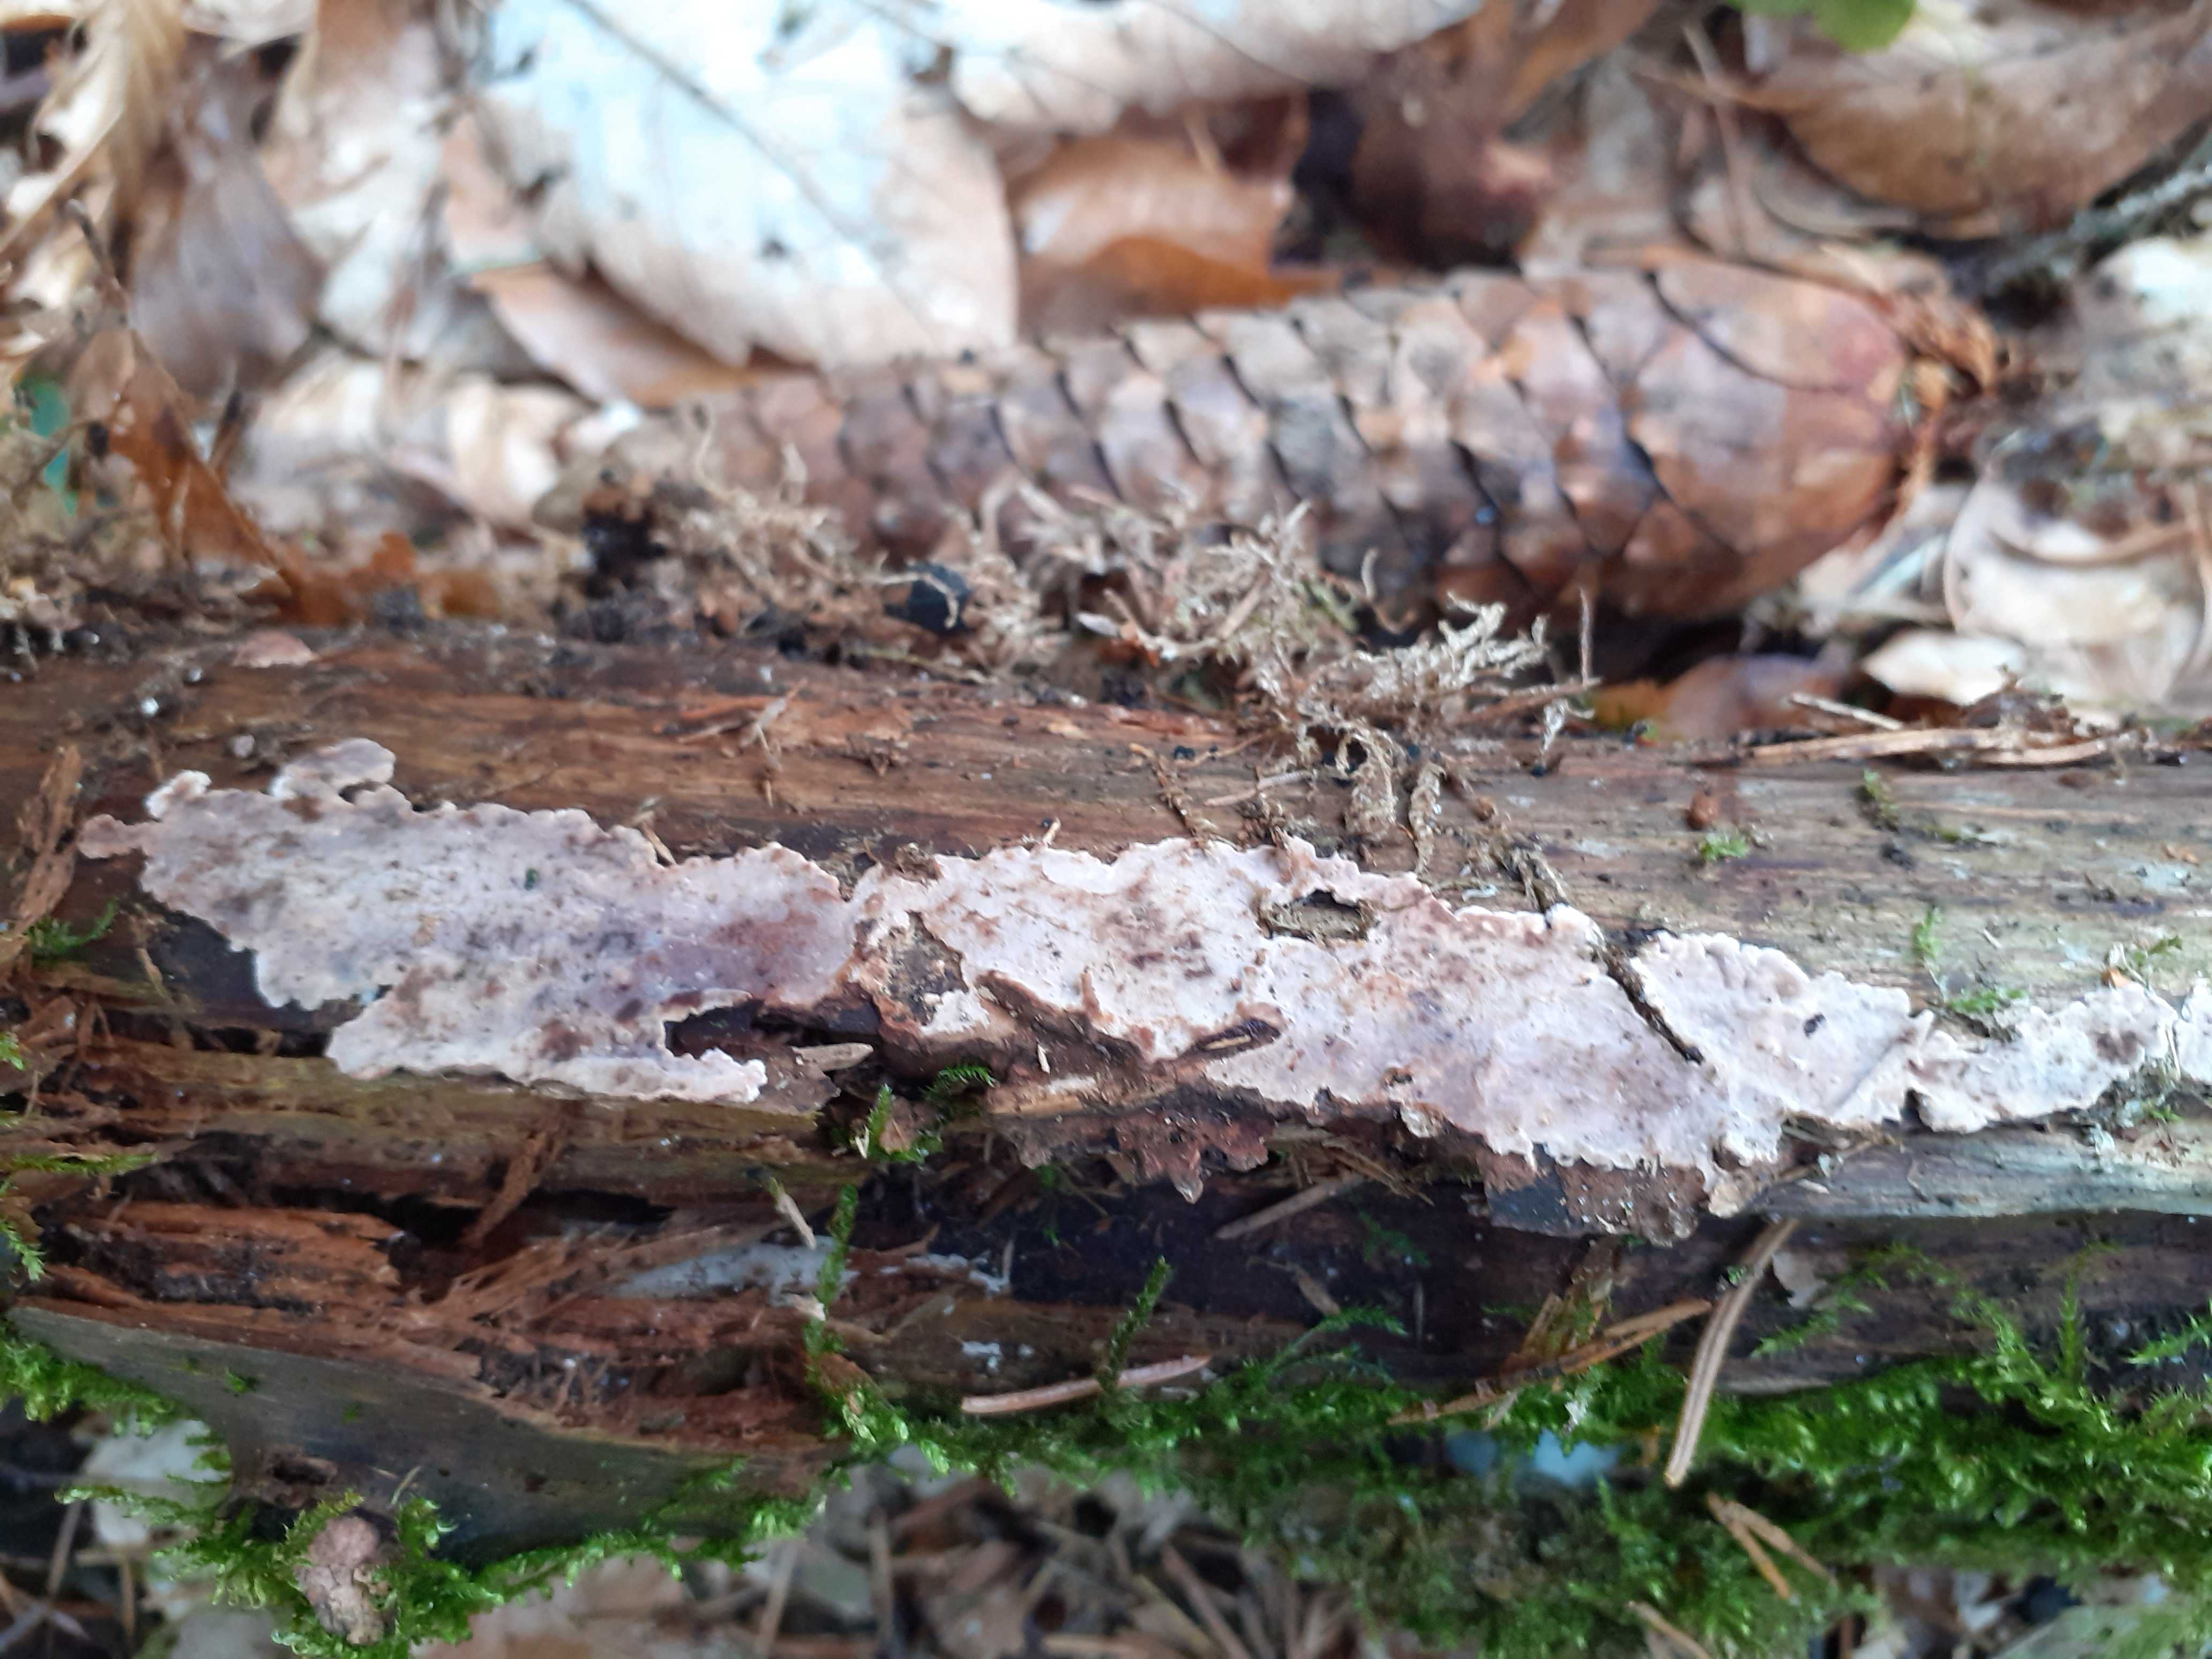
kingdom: Fungi
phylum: Basidiomycota
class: Agaricomycetes
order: Russulales
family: Stereaceae
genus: Stereum
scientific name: Stereum sanguinolentum
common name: blødende lædersvamp
